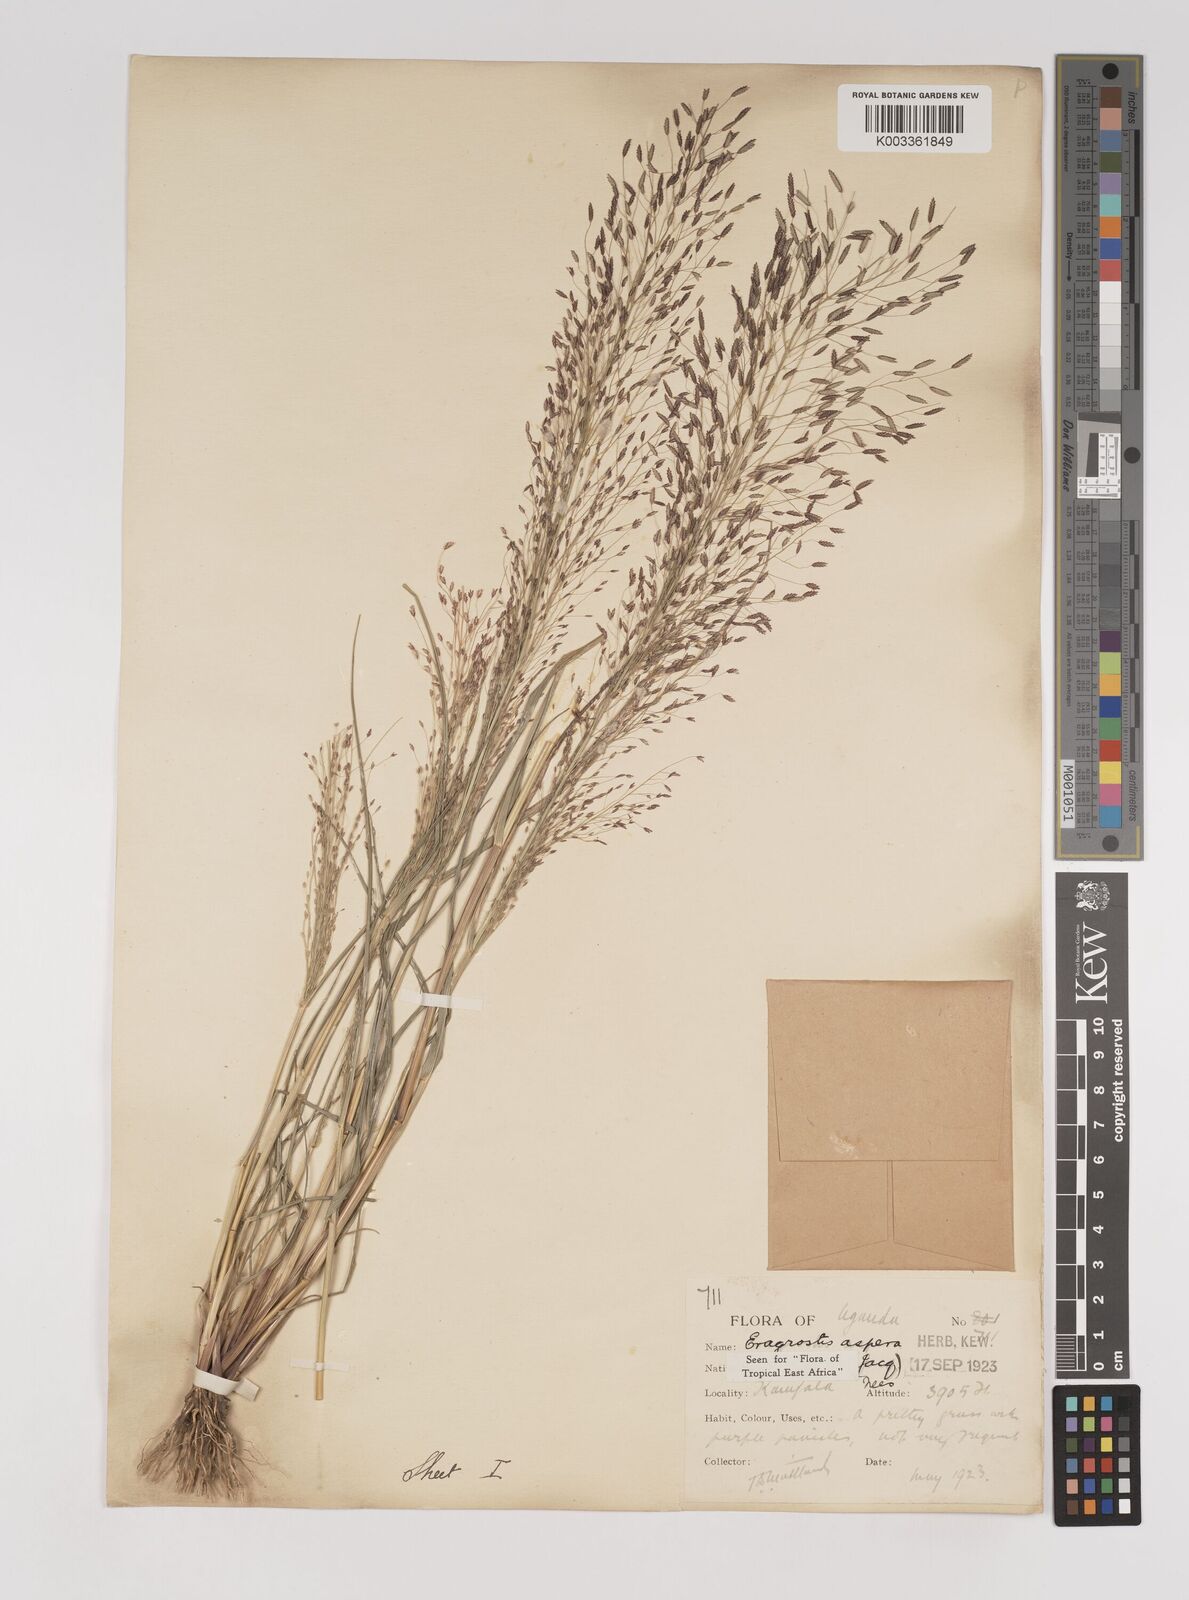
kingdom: Plantae
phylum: Tracheophyta
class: Liliopsida
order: Poales
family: Poaceae
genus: Eragrostis
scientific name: Eragrostis aspera
